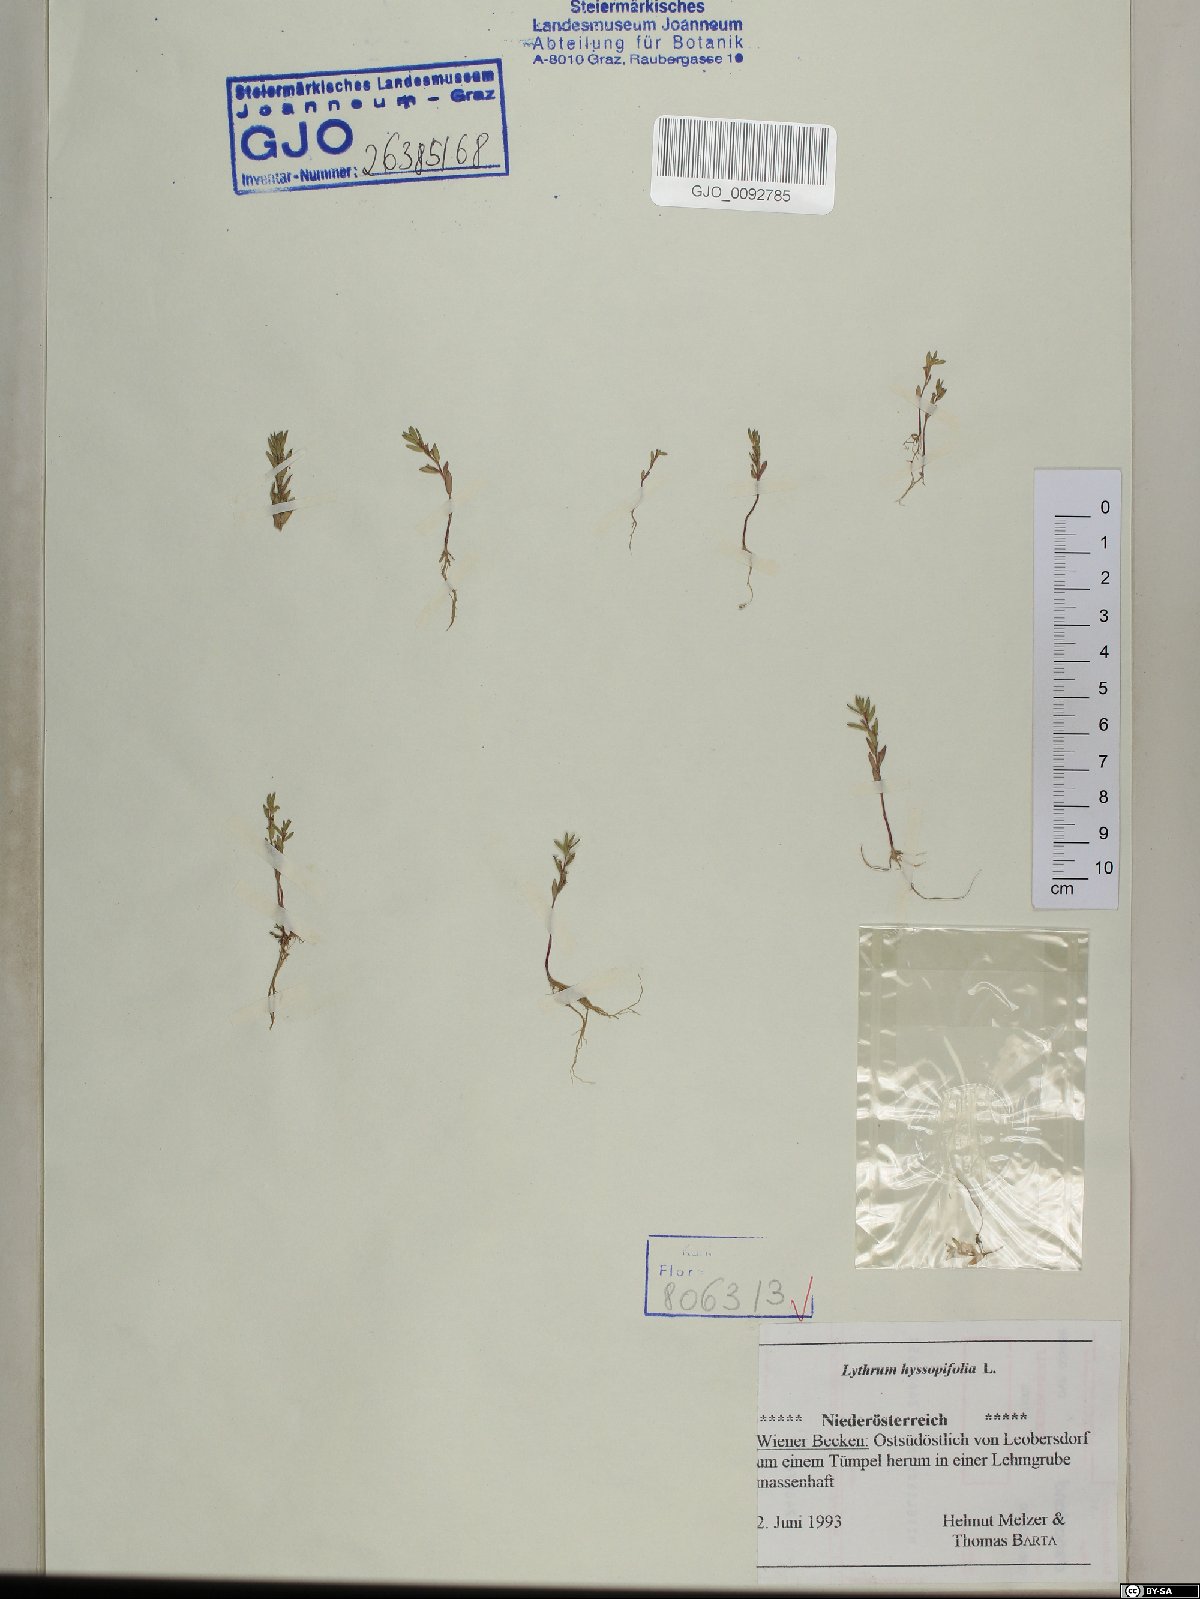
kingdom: Plantae
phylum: Tracheophyta
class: Magnoliopsida
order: Myrtales
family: Lythraceae
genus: Lythrum
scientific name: Lythrum hyssopifolia
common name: Grass-poly
